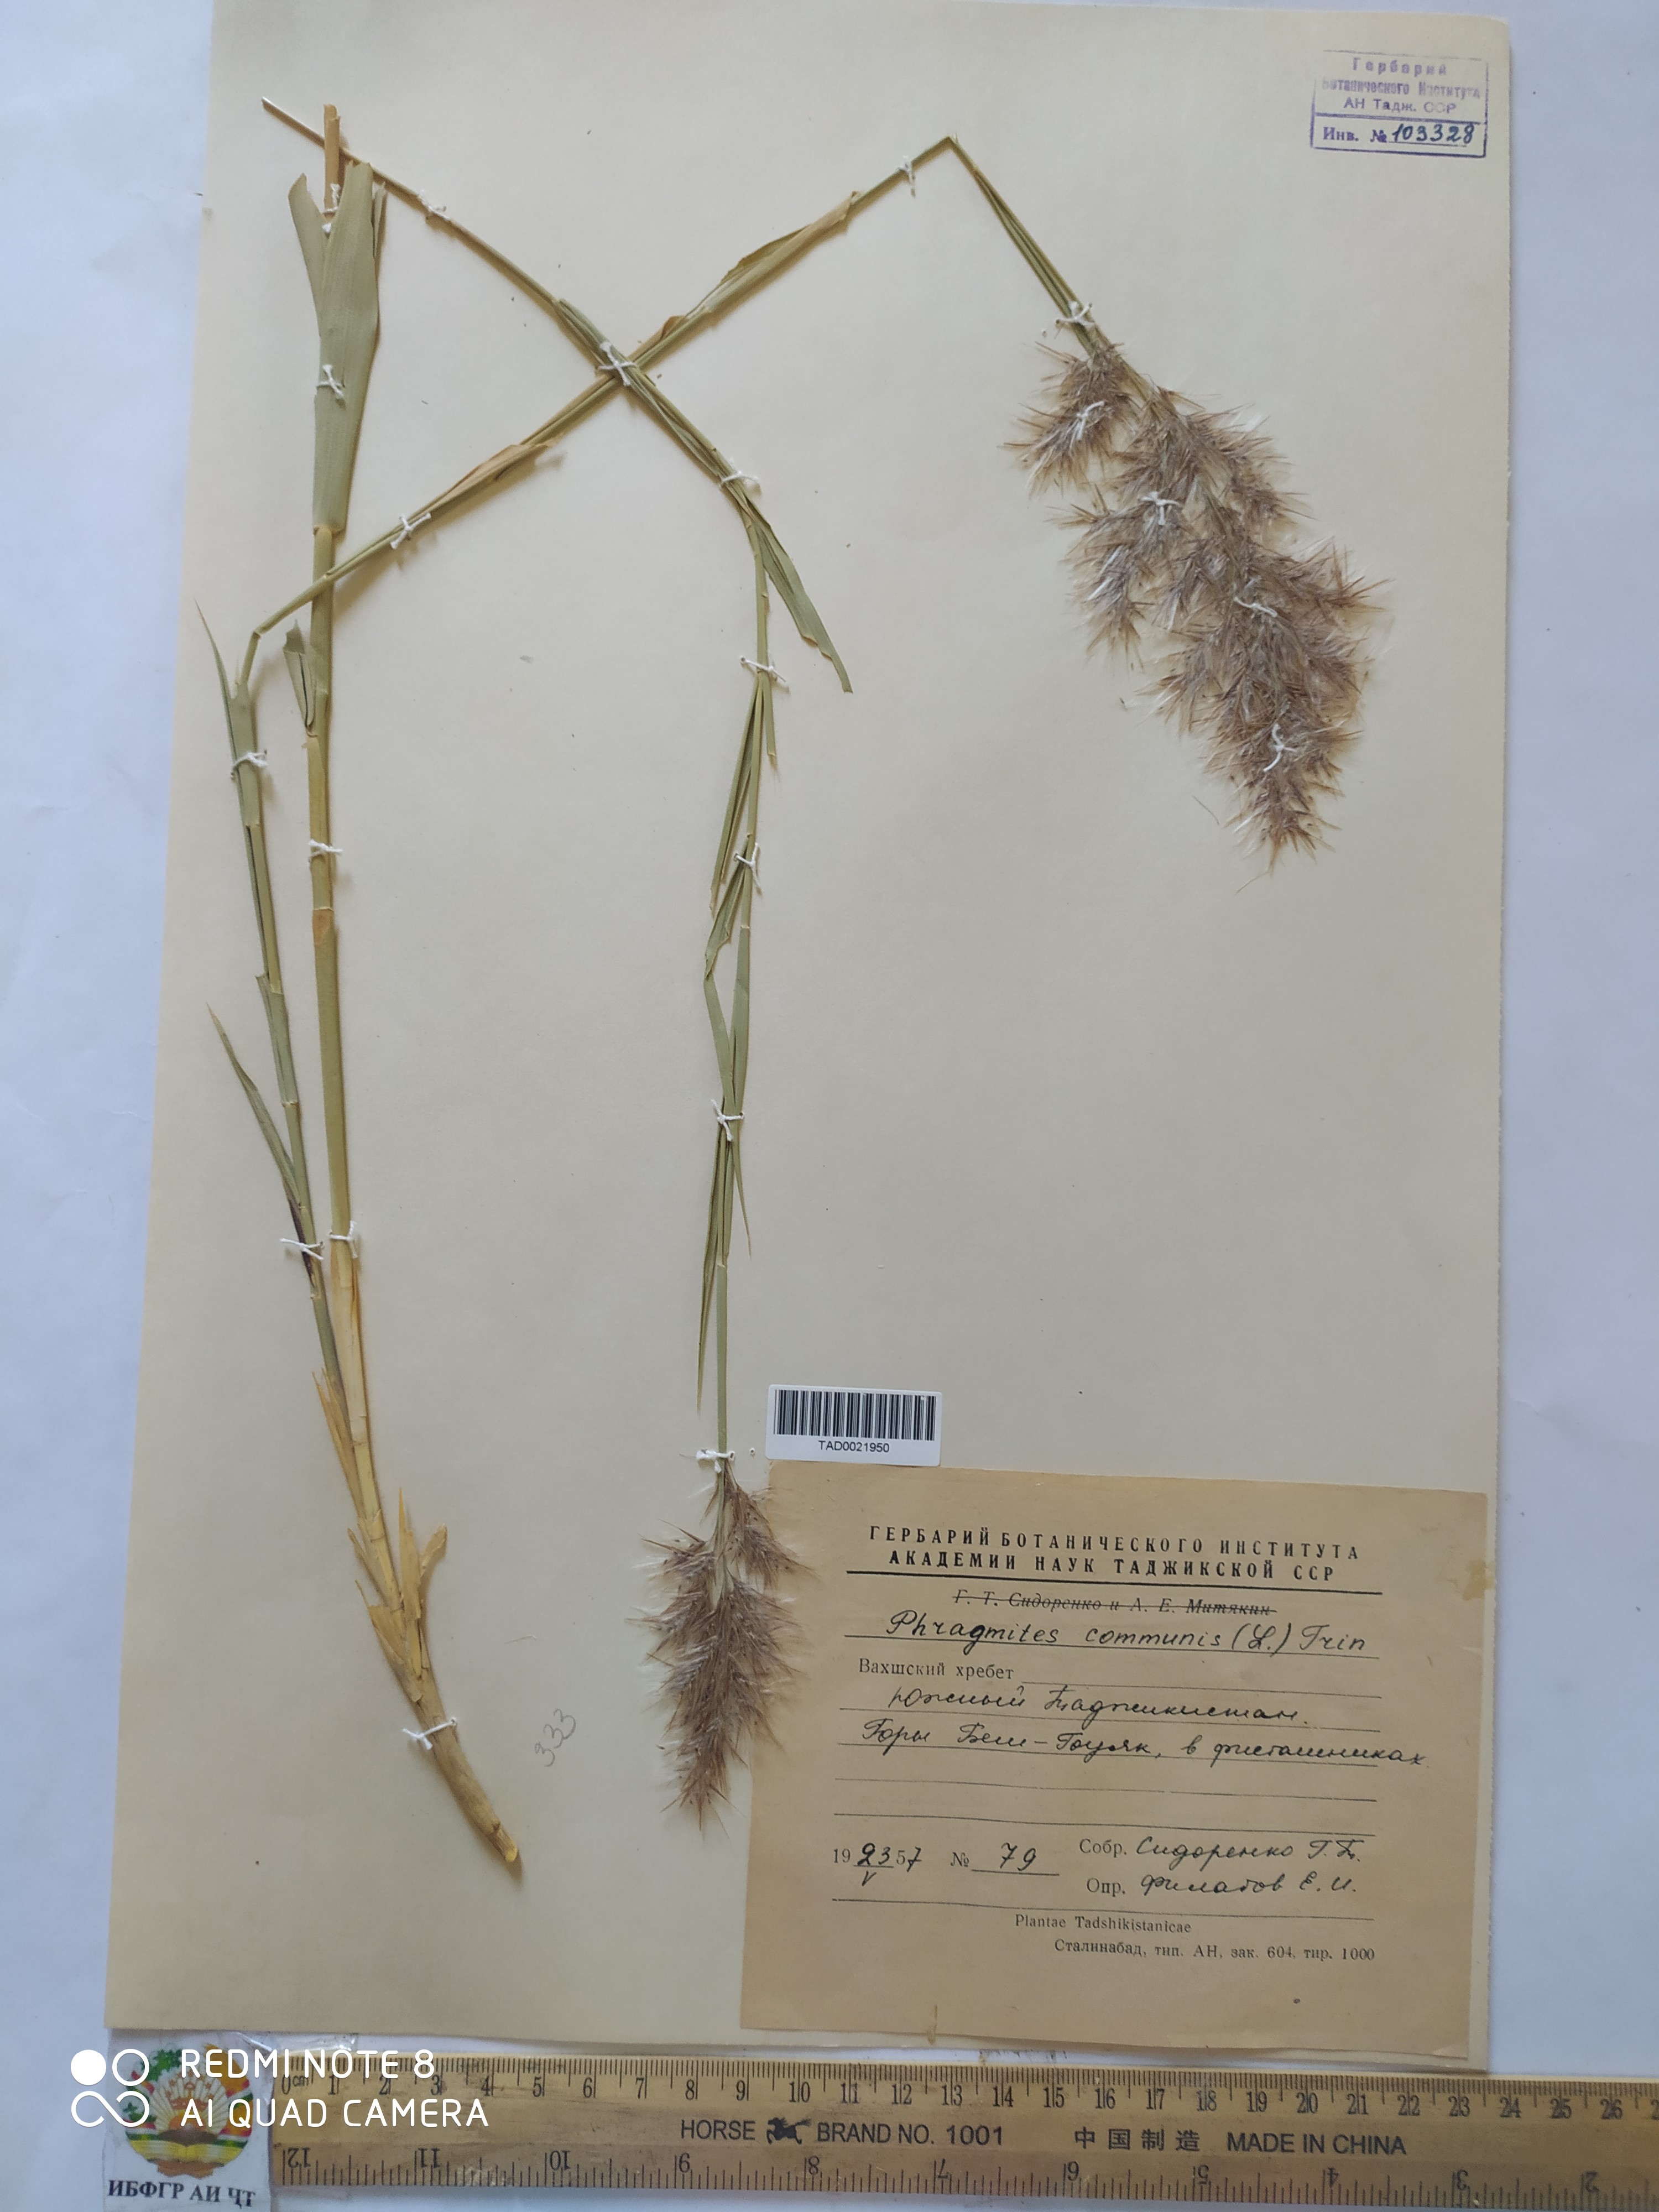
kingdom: Plantae
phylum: Tracheophyta
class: Liliopsida
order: Poales
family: Poaceae
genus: Phragmites
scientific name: Phragmites australis
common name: Common reed
